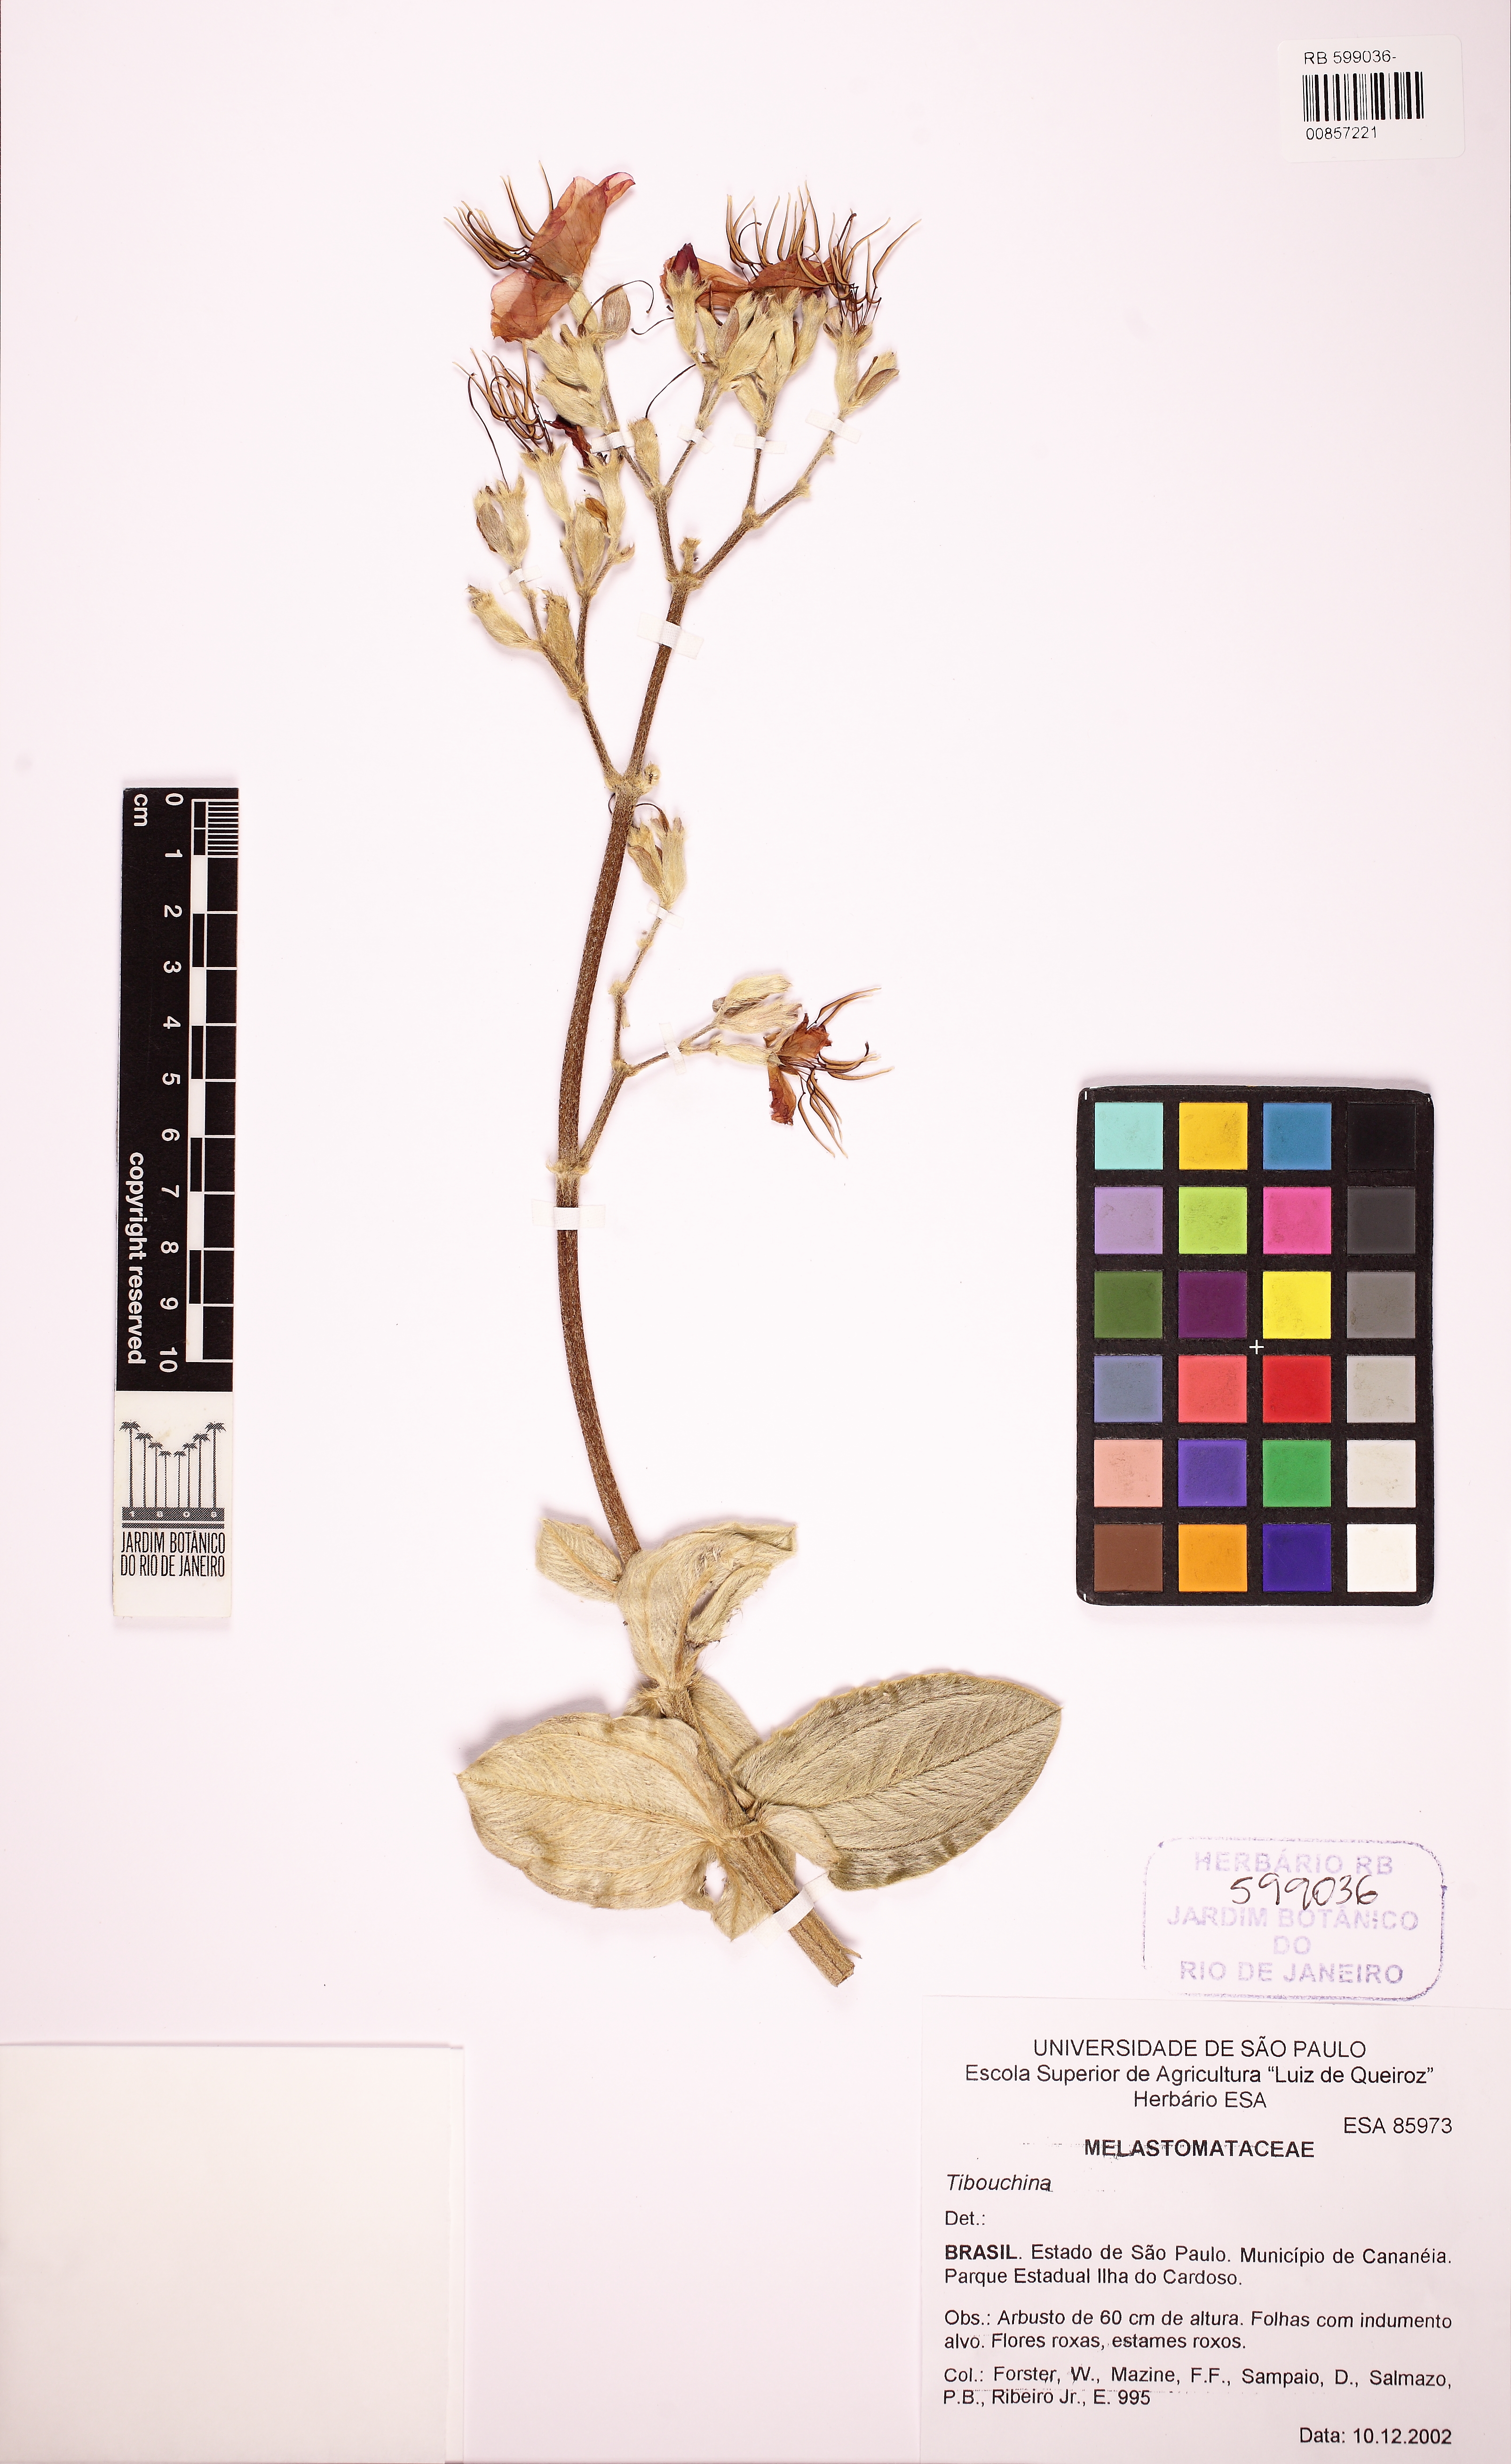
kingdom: Plantae
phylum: Tracheophyta
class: Magnoliopsida
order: Myrtales
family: Melastomataceae
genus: Tibouchina
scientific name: Tibouchina
